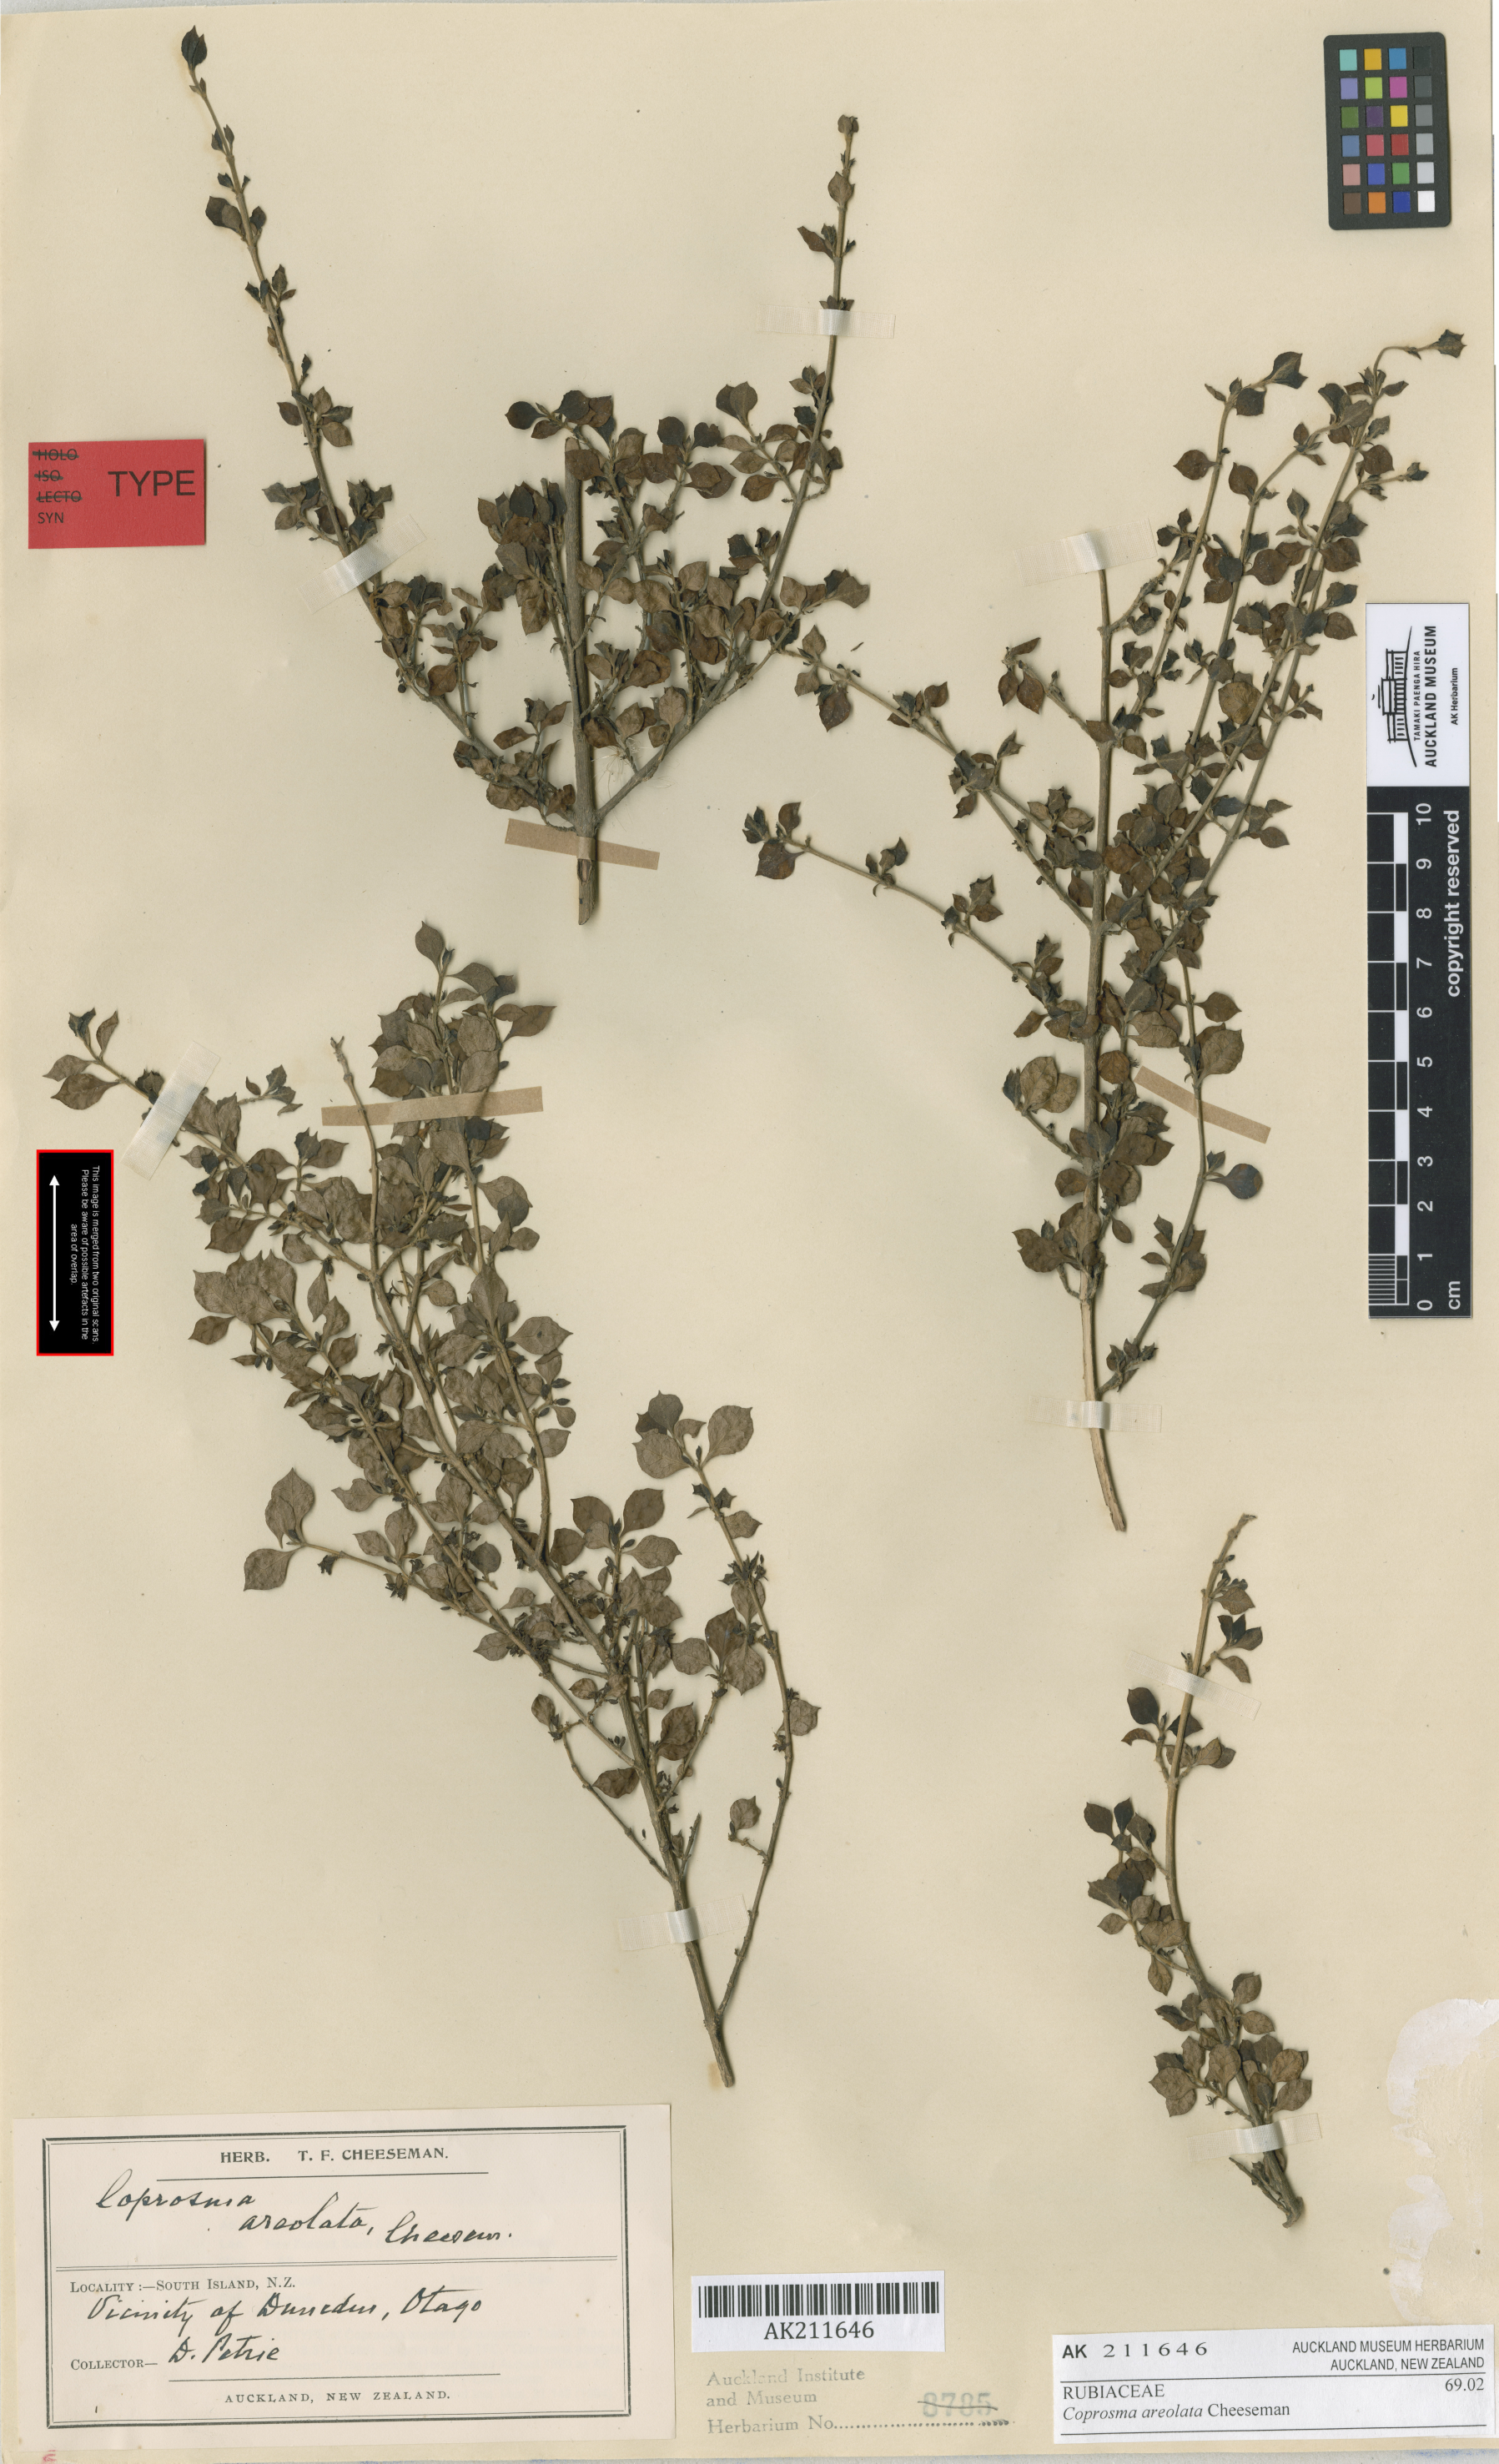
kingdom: Plantae
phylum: Tracheophyta
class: Magnoliopsida
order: Gentianales
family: Rubiaceae
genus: Coprosma
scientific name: Coprosma areolata
